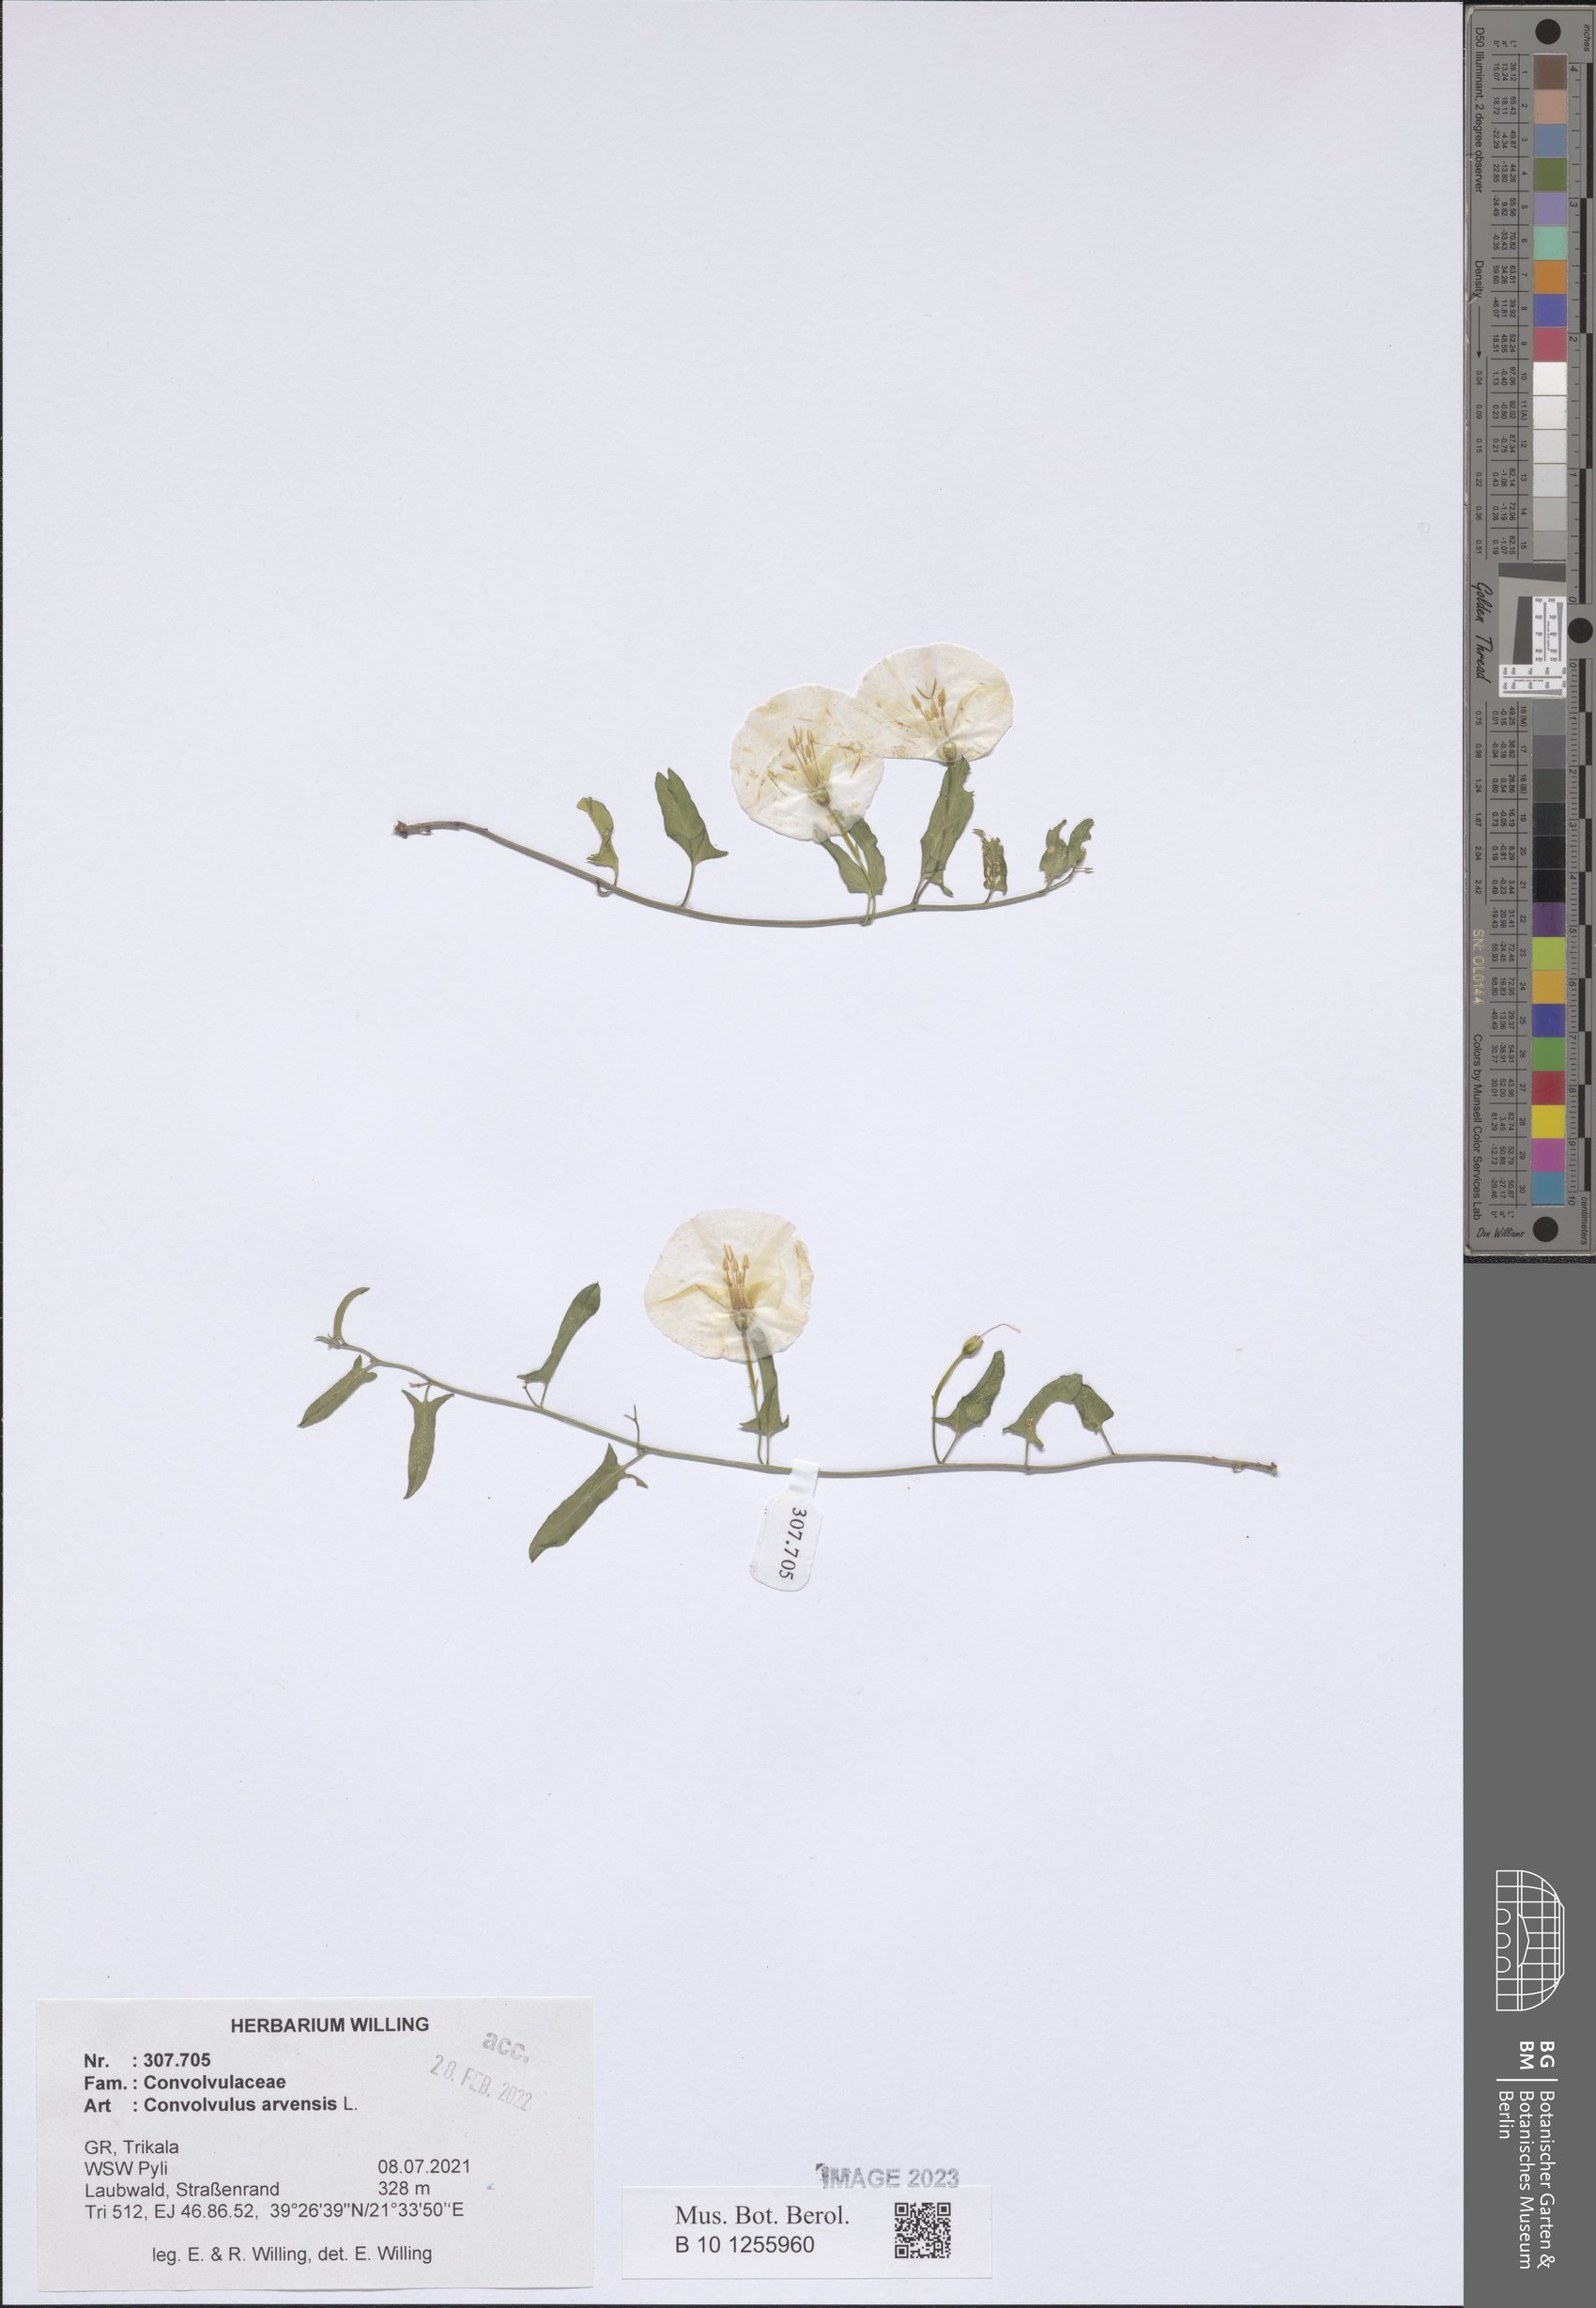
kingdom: Plantae
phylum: Tracheophyta
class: Magnoliopsida
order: Solanales
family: Convolvulaceae
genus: Convolvulus
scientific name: Convolvulus arvensis
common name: Field bindweed
